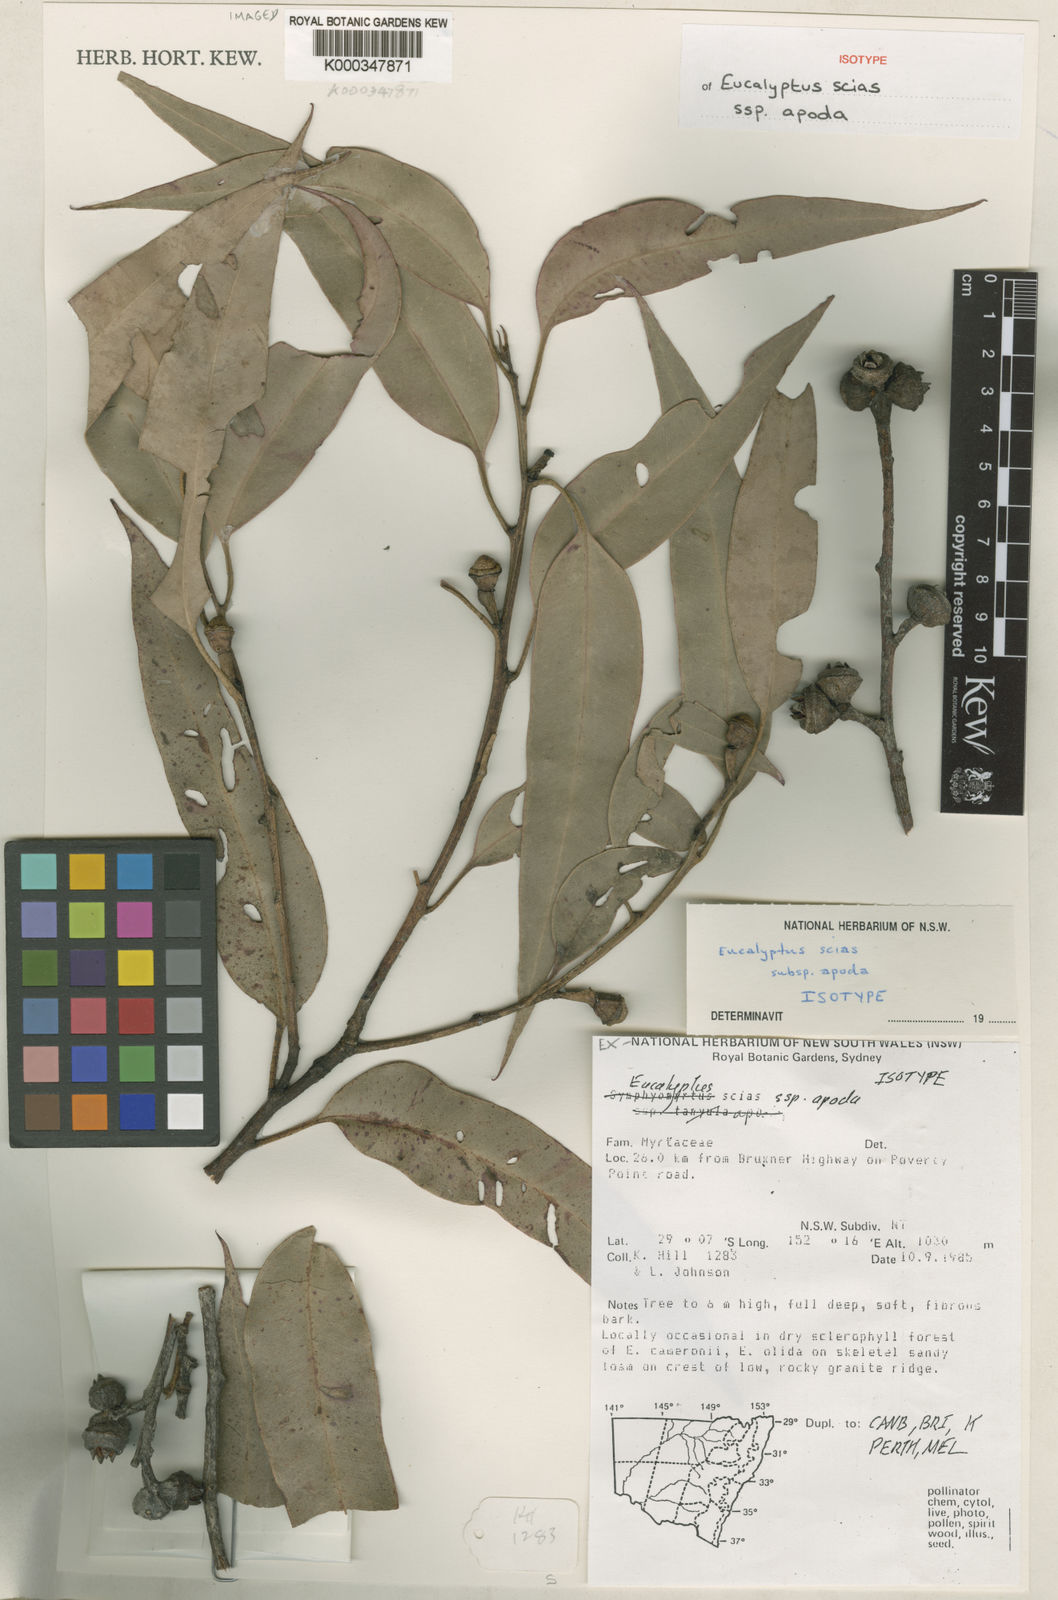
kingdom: Plantae
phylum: Tracheophyta
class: Magnoliopsida
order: Myrtales
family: Myrtaceae
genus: Eucalyptus
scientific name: Eucalyptus scias
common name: Red mahogany
